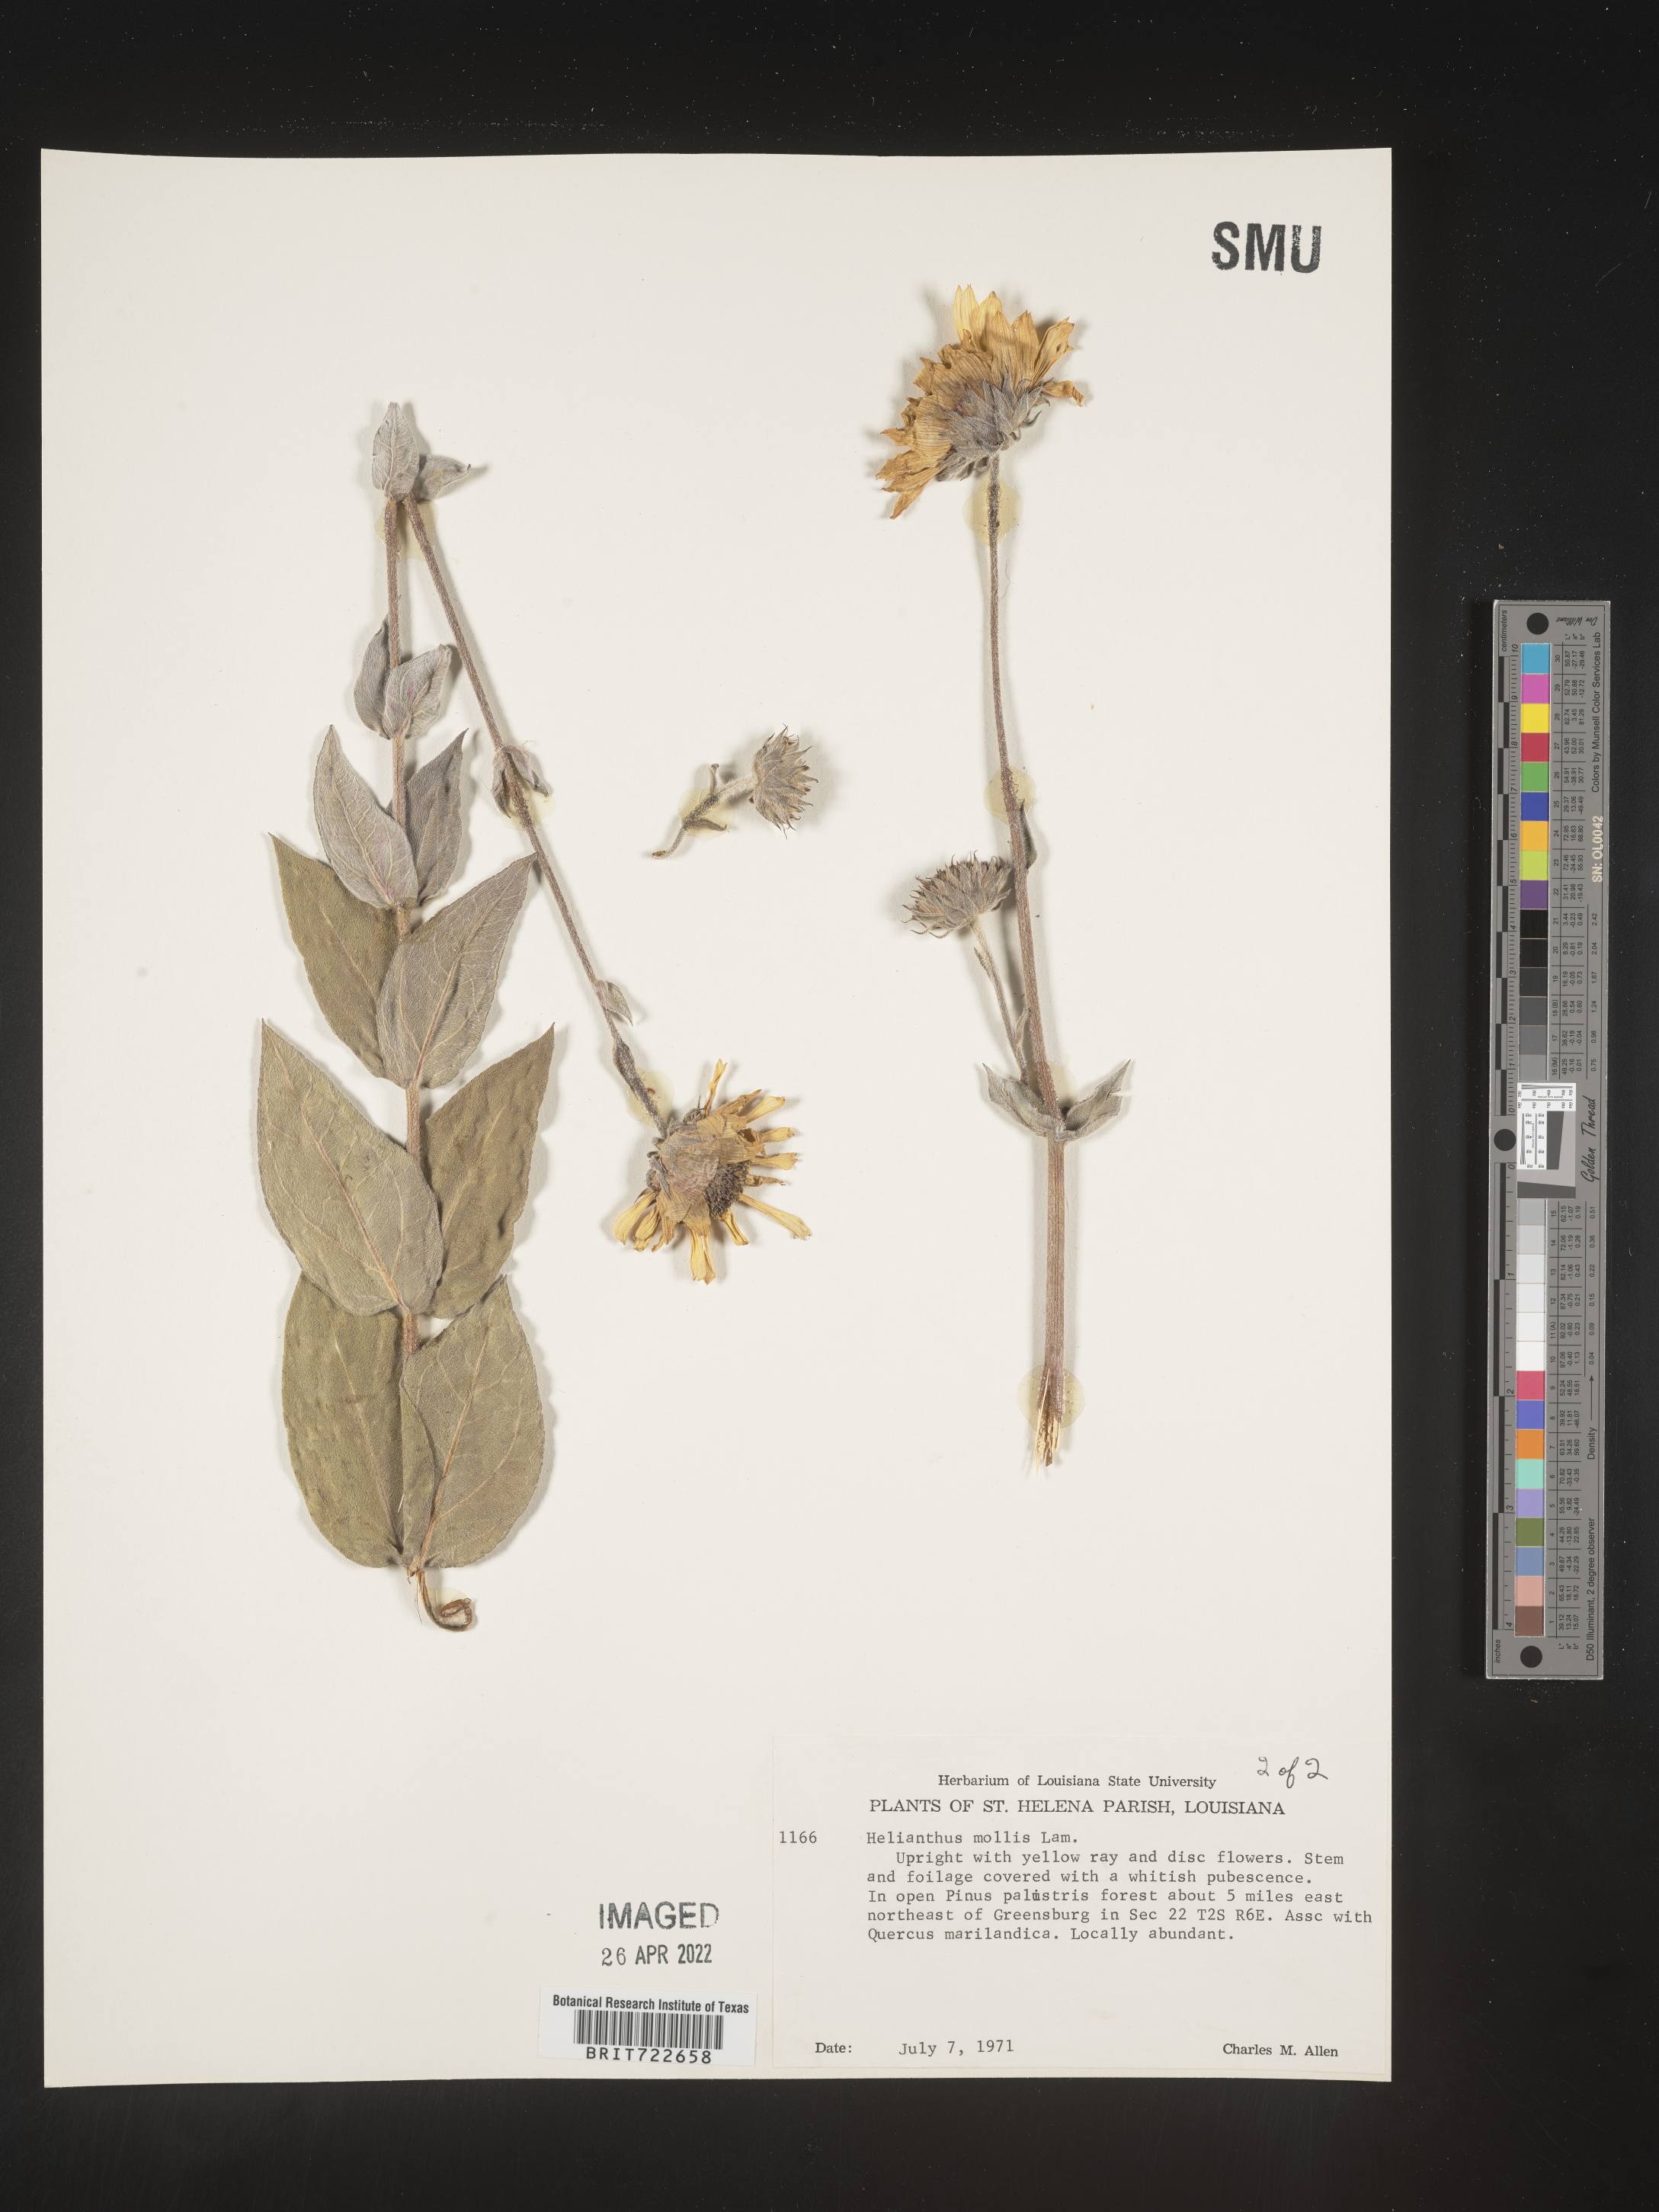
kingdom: Plantae
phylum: Tracheophyta
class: Magnoliopsida
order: Asterales
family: Asteraceae
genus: Helianthus
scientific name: Helianthus mollis
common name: Ashy sunflower
